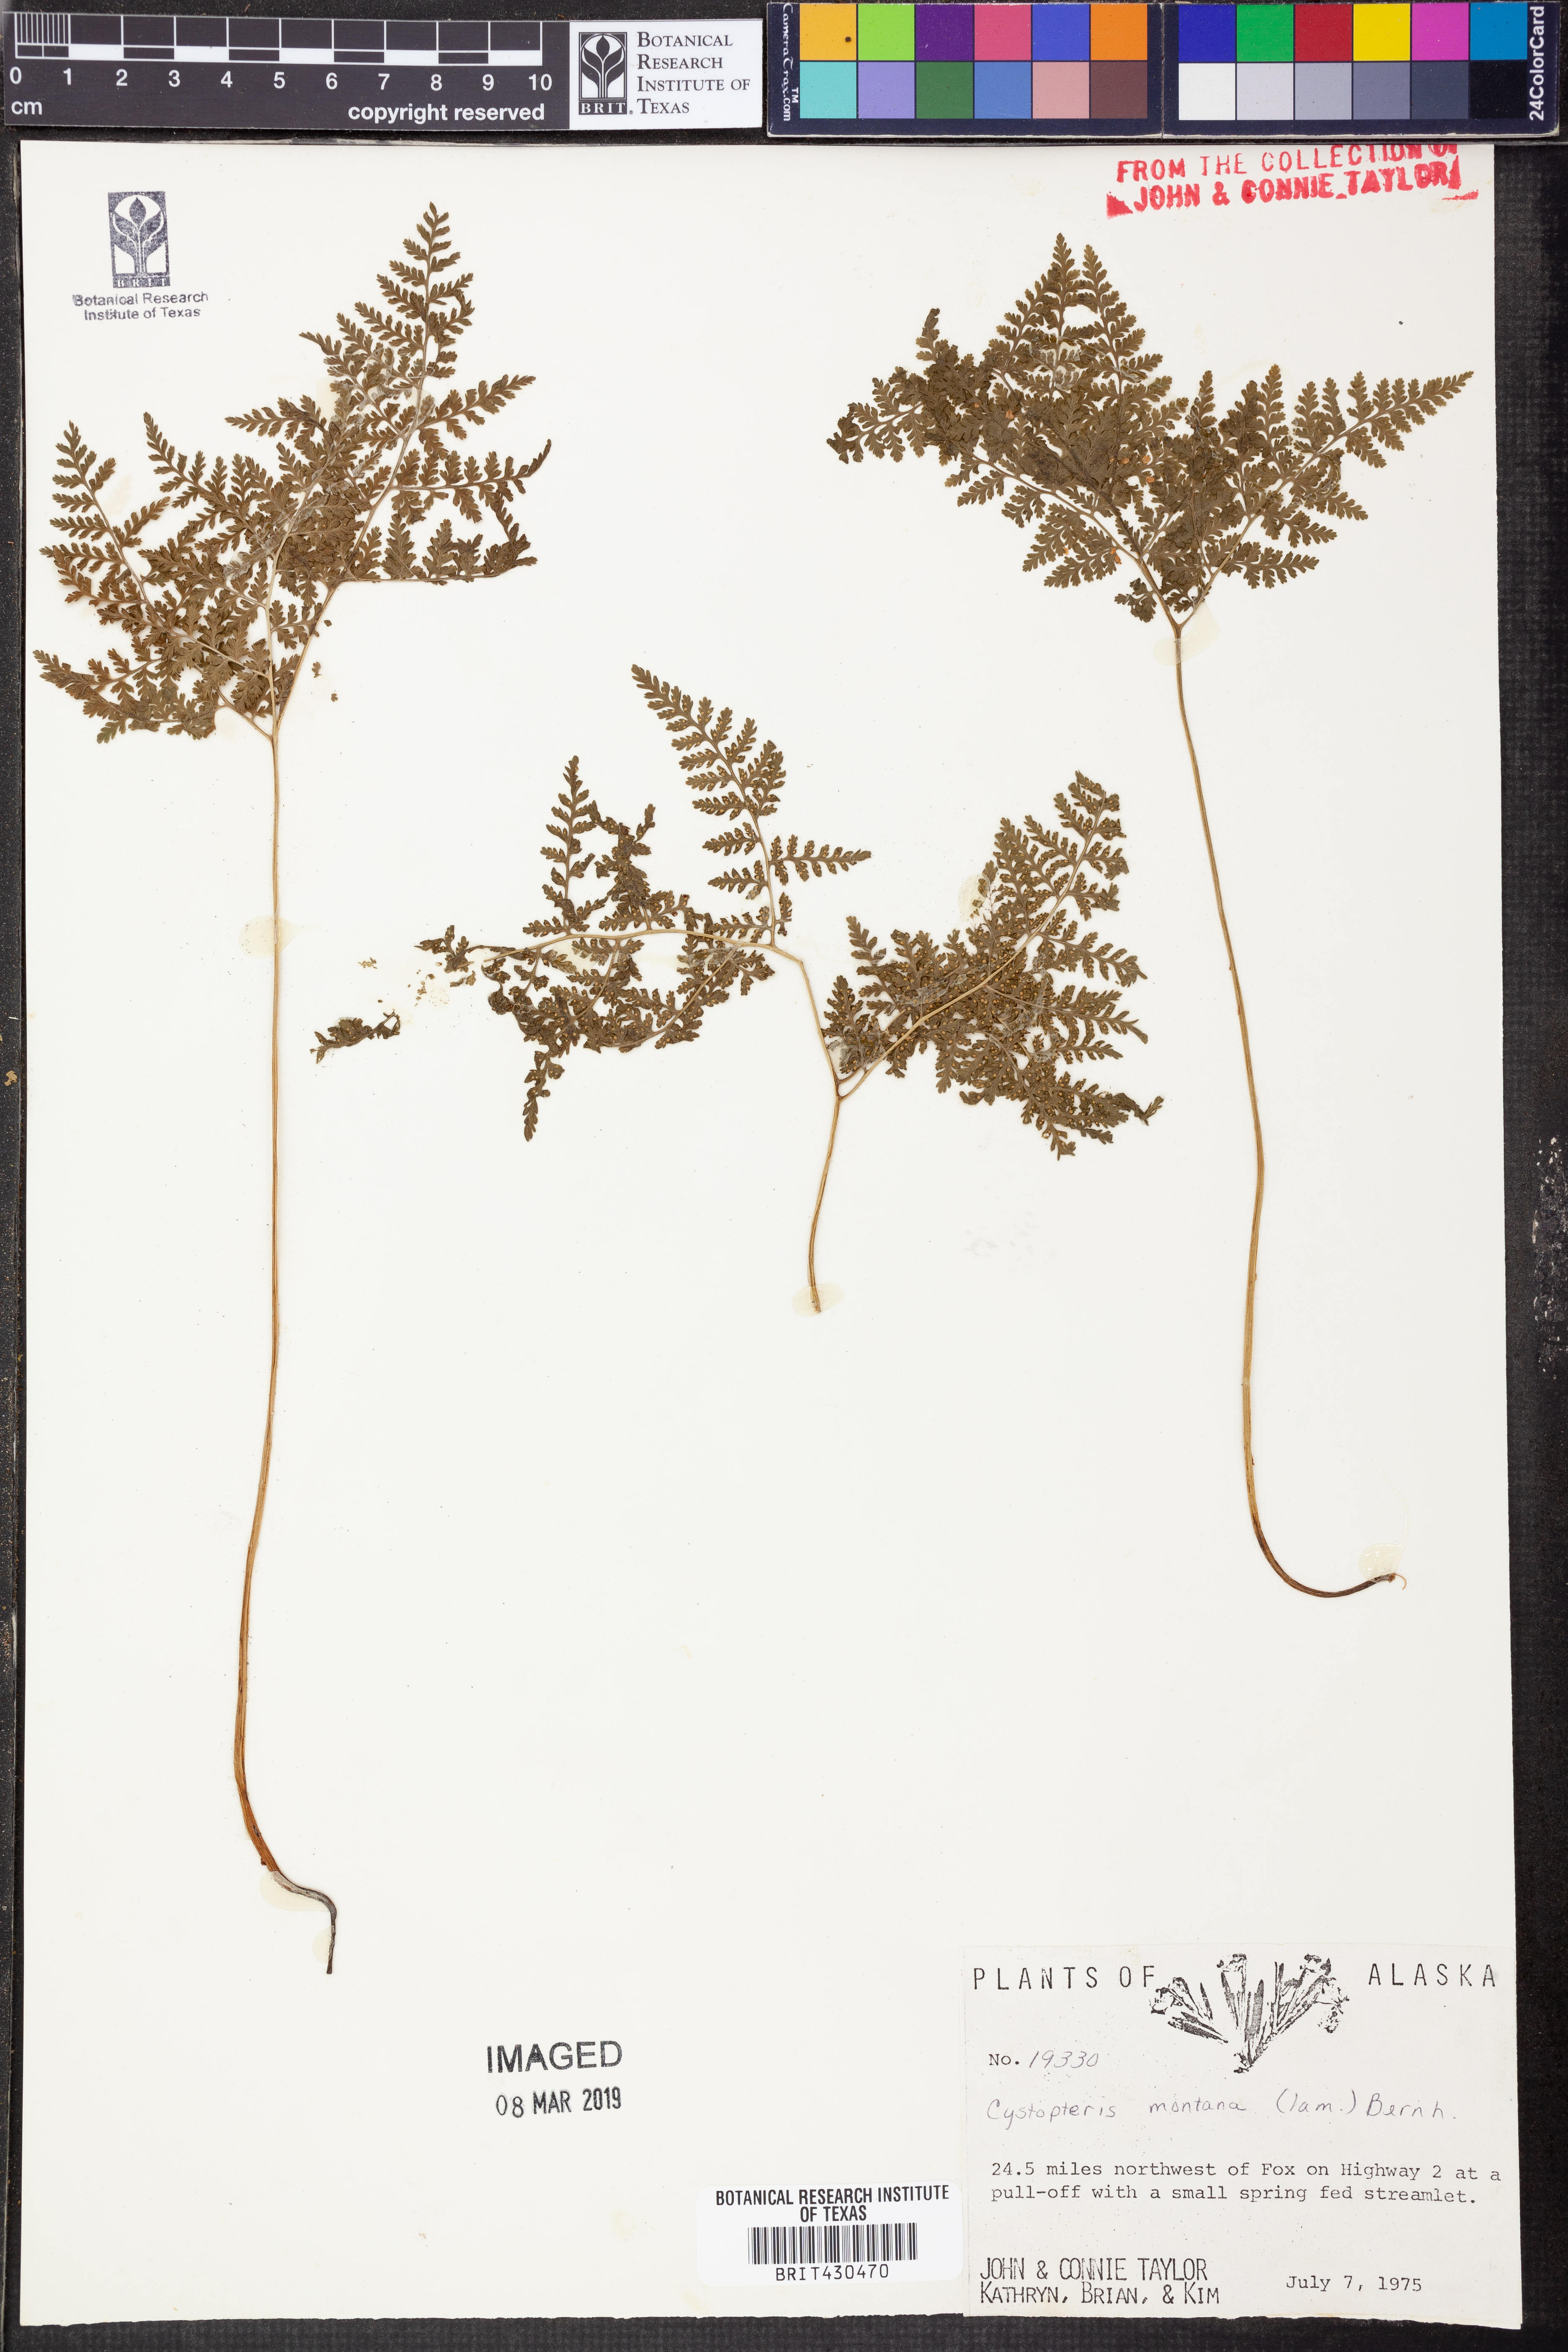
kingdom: Plantae
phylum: Tracheophyta
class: Polypodiopsida
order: Polypodiales
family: Cystopteridaceae
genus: Cystopteris
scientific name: Cystopteris montana
